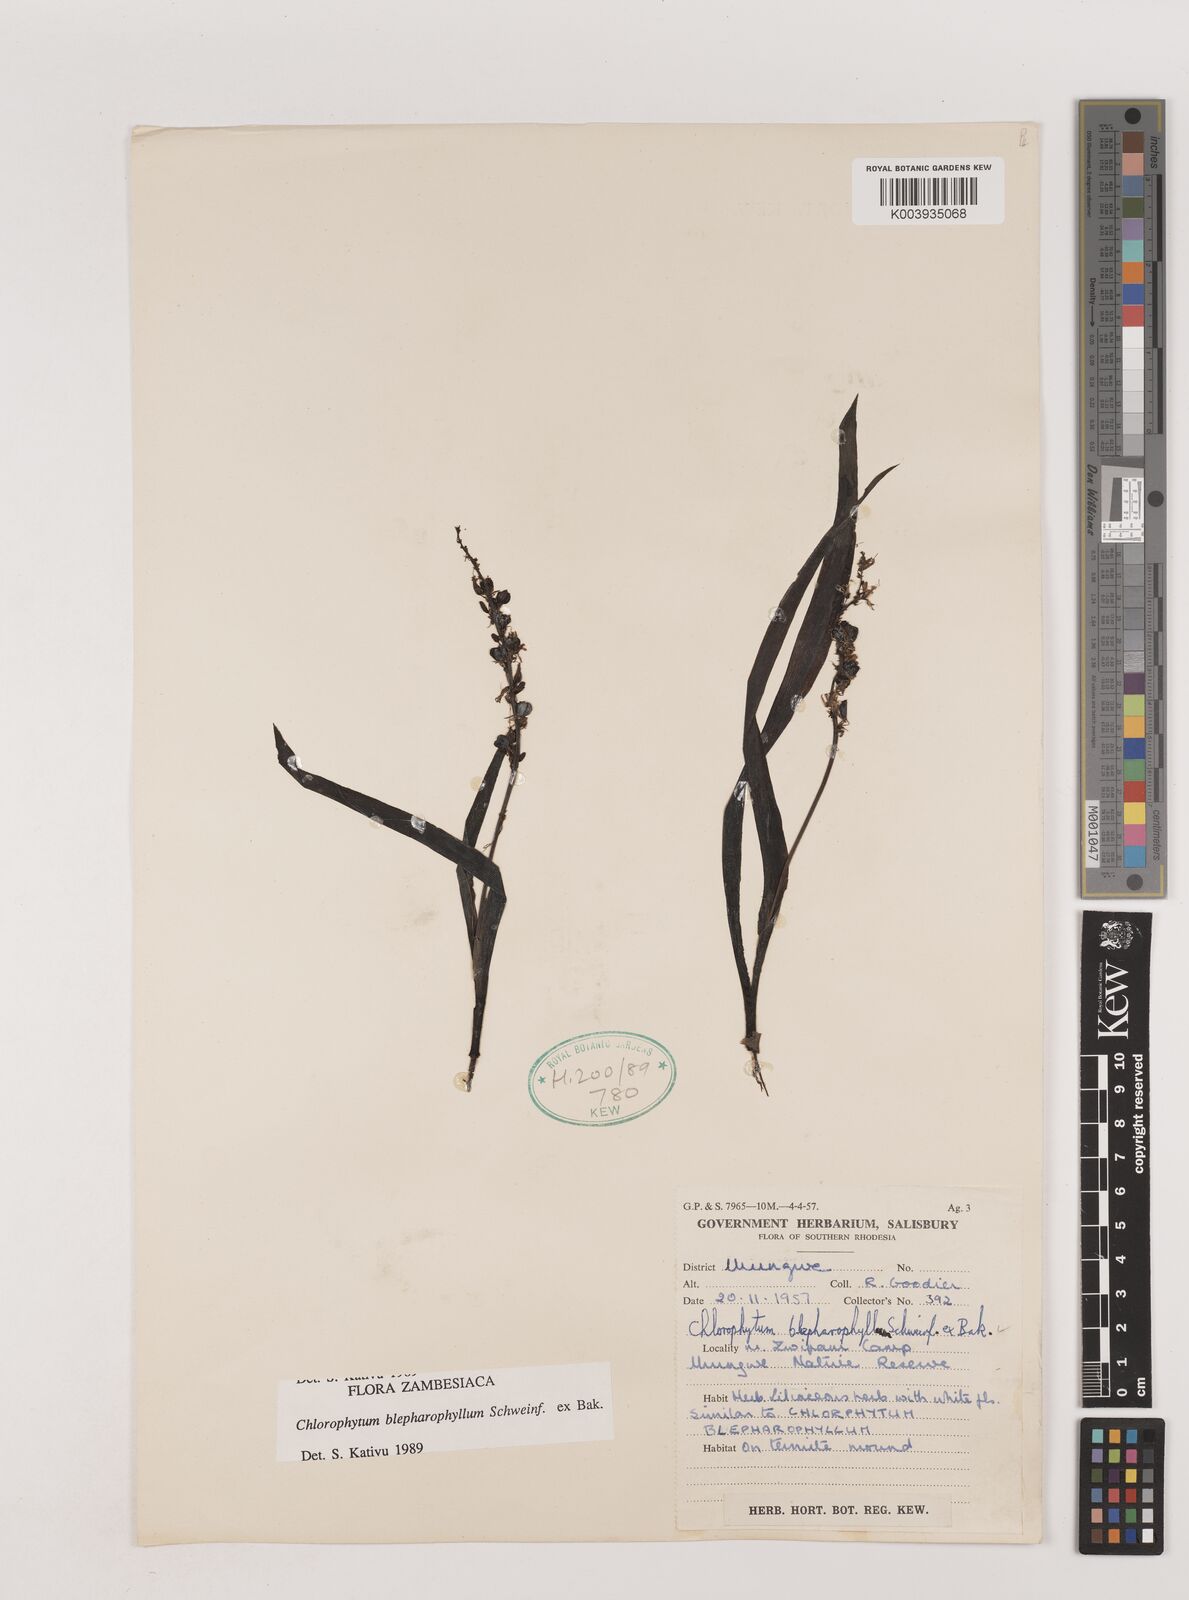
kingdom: Plantae
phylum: Tracheophyta
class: Liliopsida
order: Asparagales
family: Asparagaceae
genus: Chlorophytum
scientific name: Chlorophytum blepharophyllum
